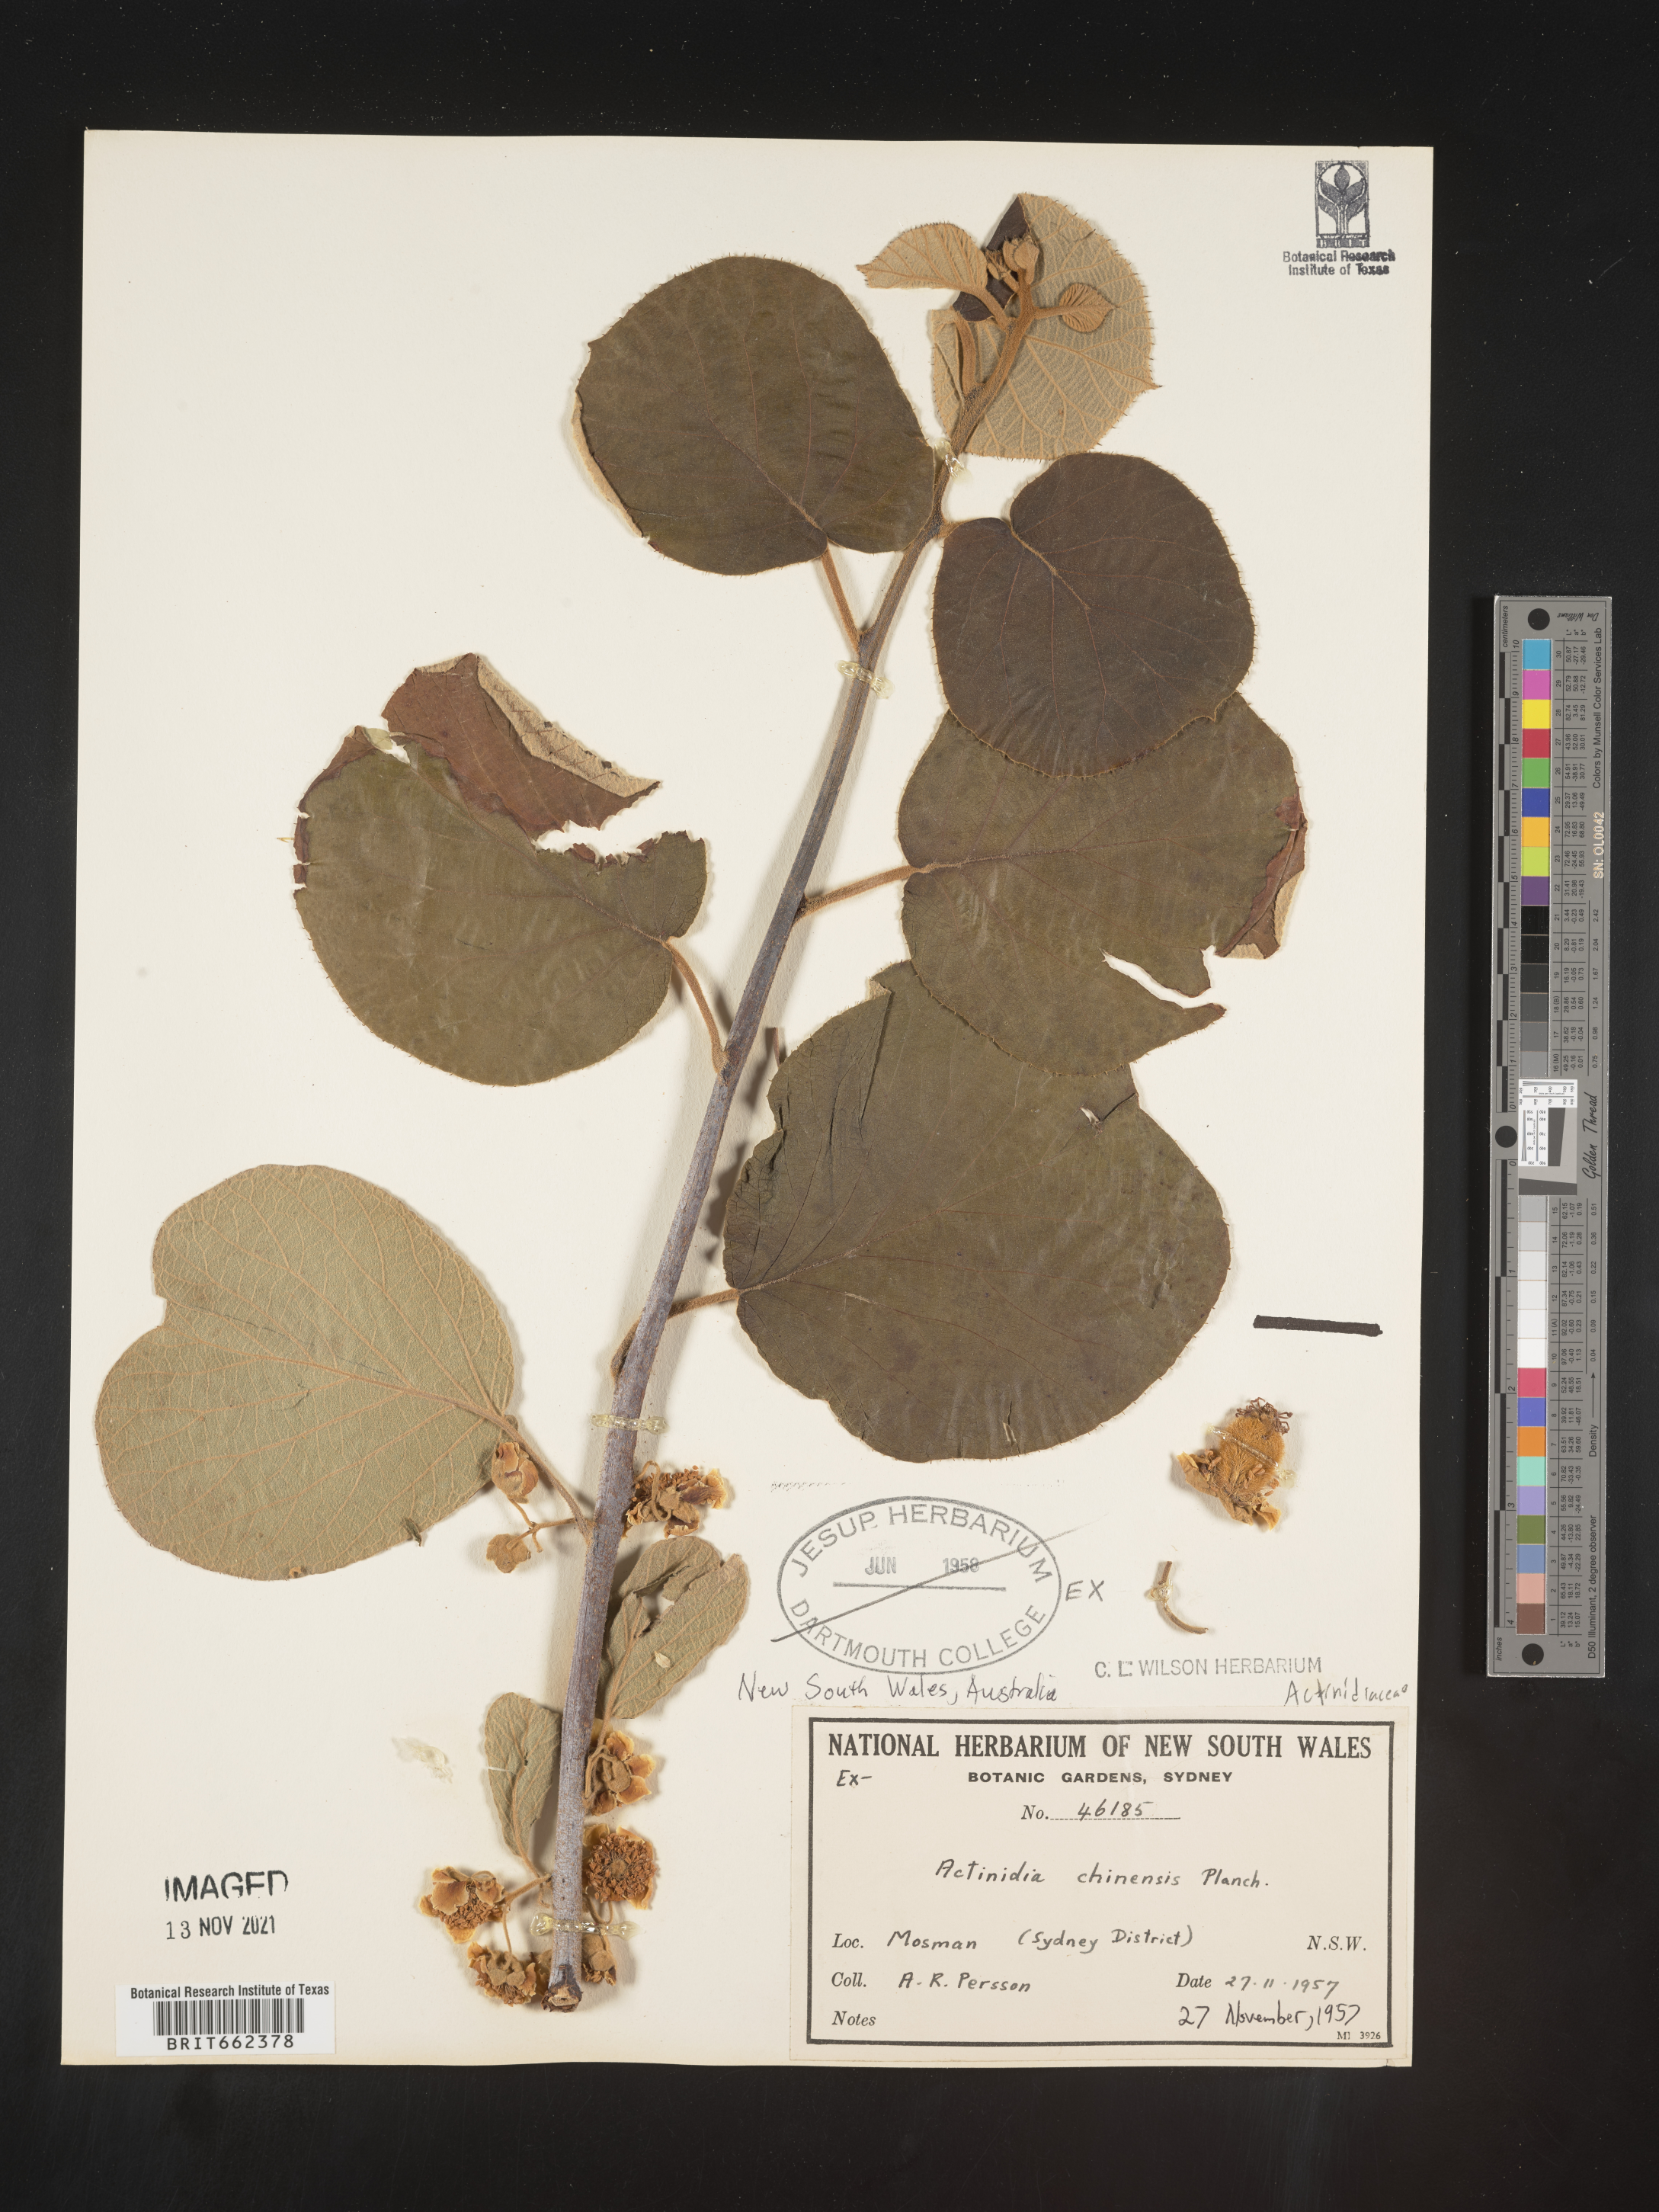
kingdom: Plantae
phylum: Tracheophyta
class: Magnoliopsida
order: Ericales
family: Actinidiaceae
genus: Actinidia
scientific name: Actinidia
